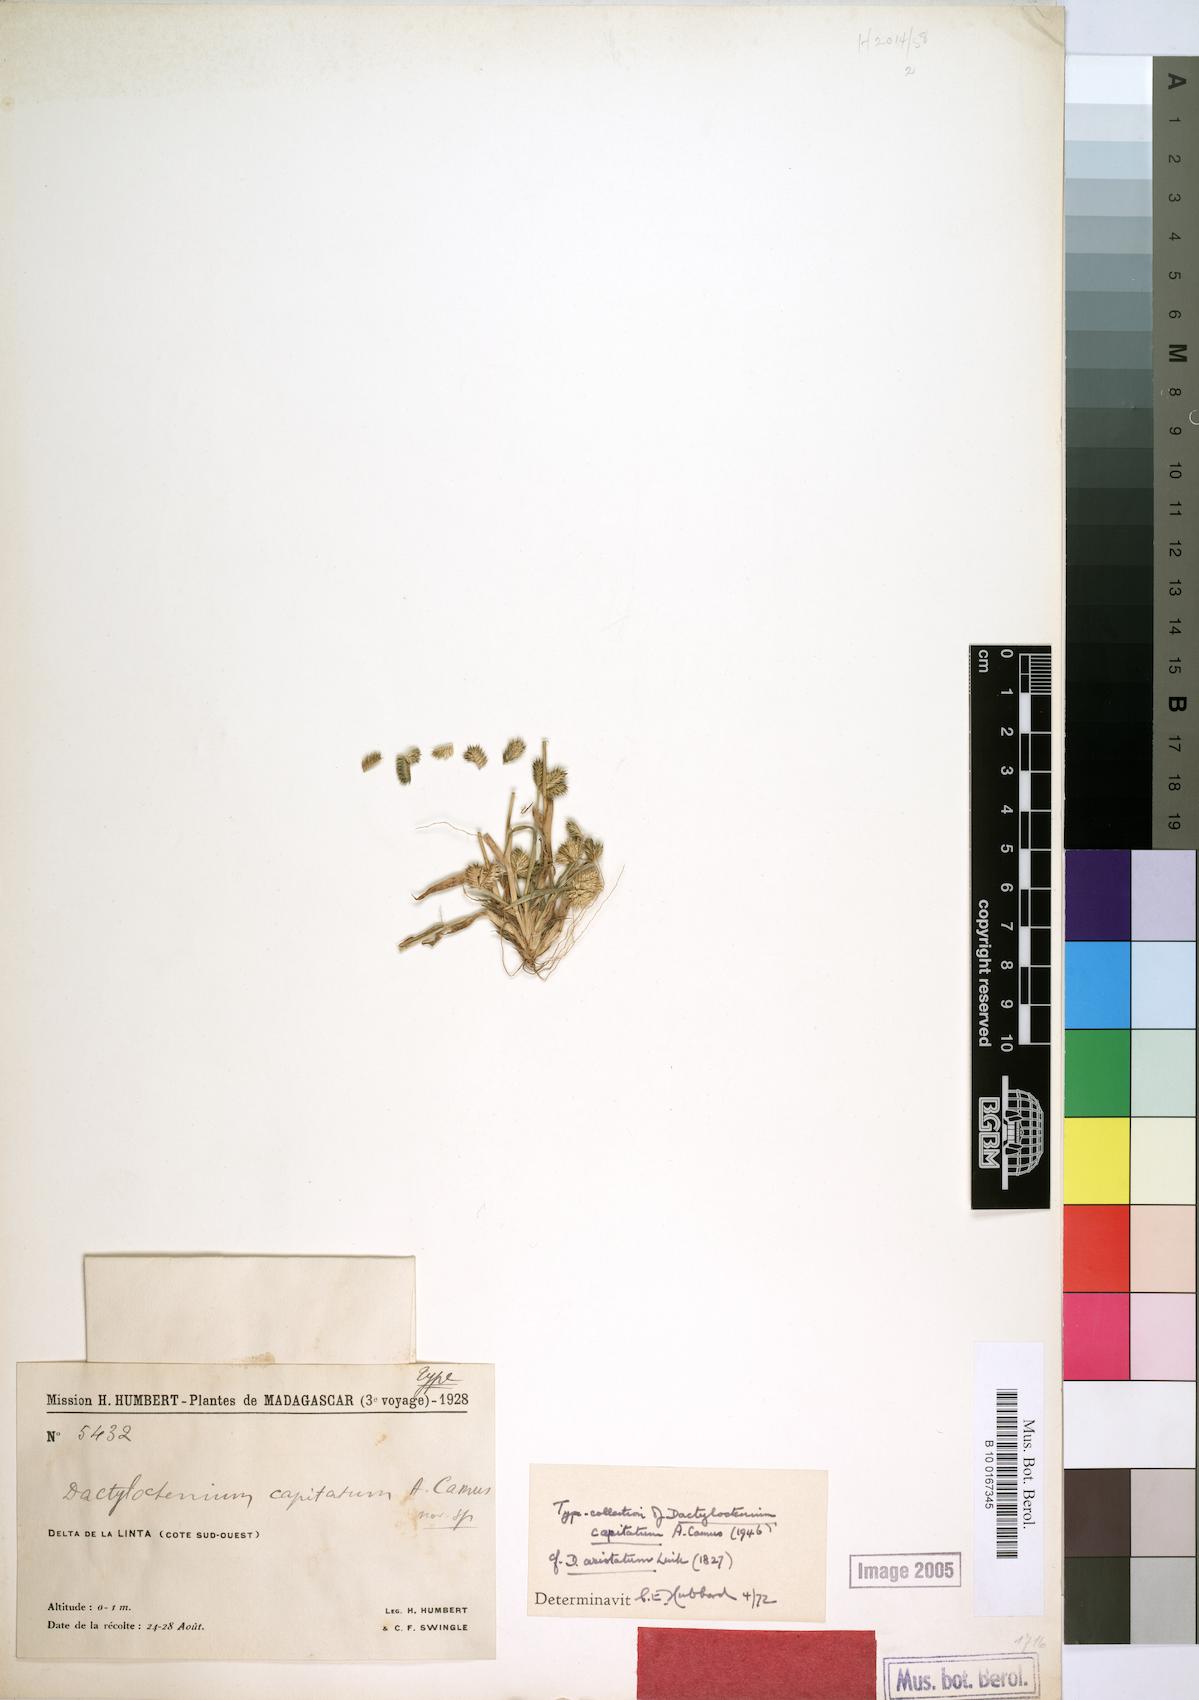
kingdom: Plantae
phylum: Tracheophyta
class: Liliopsida
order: Poales
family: Poaceae
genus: Dactyloctenium
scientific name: Dactyloctenium capitatum
